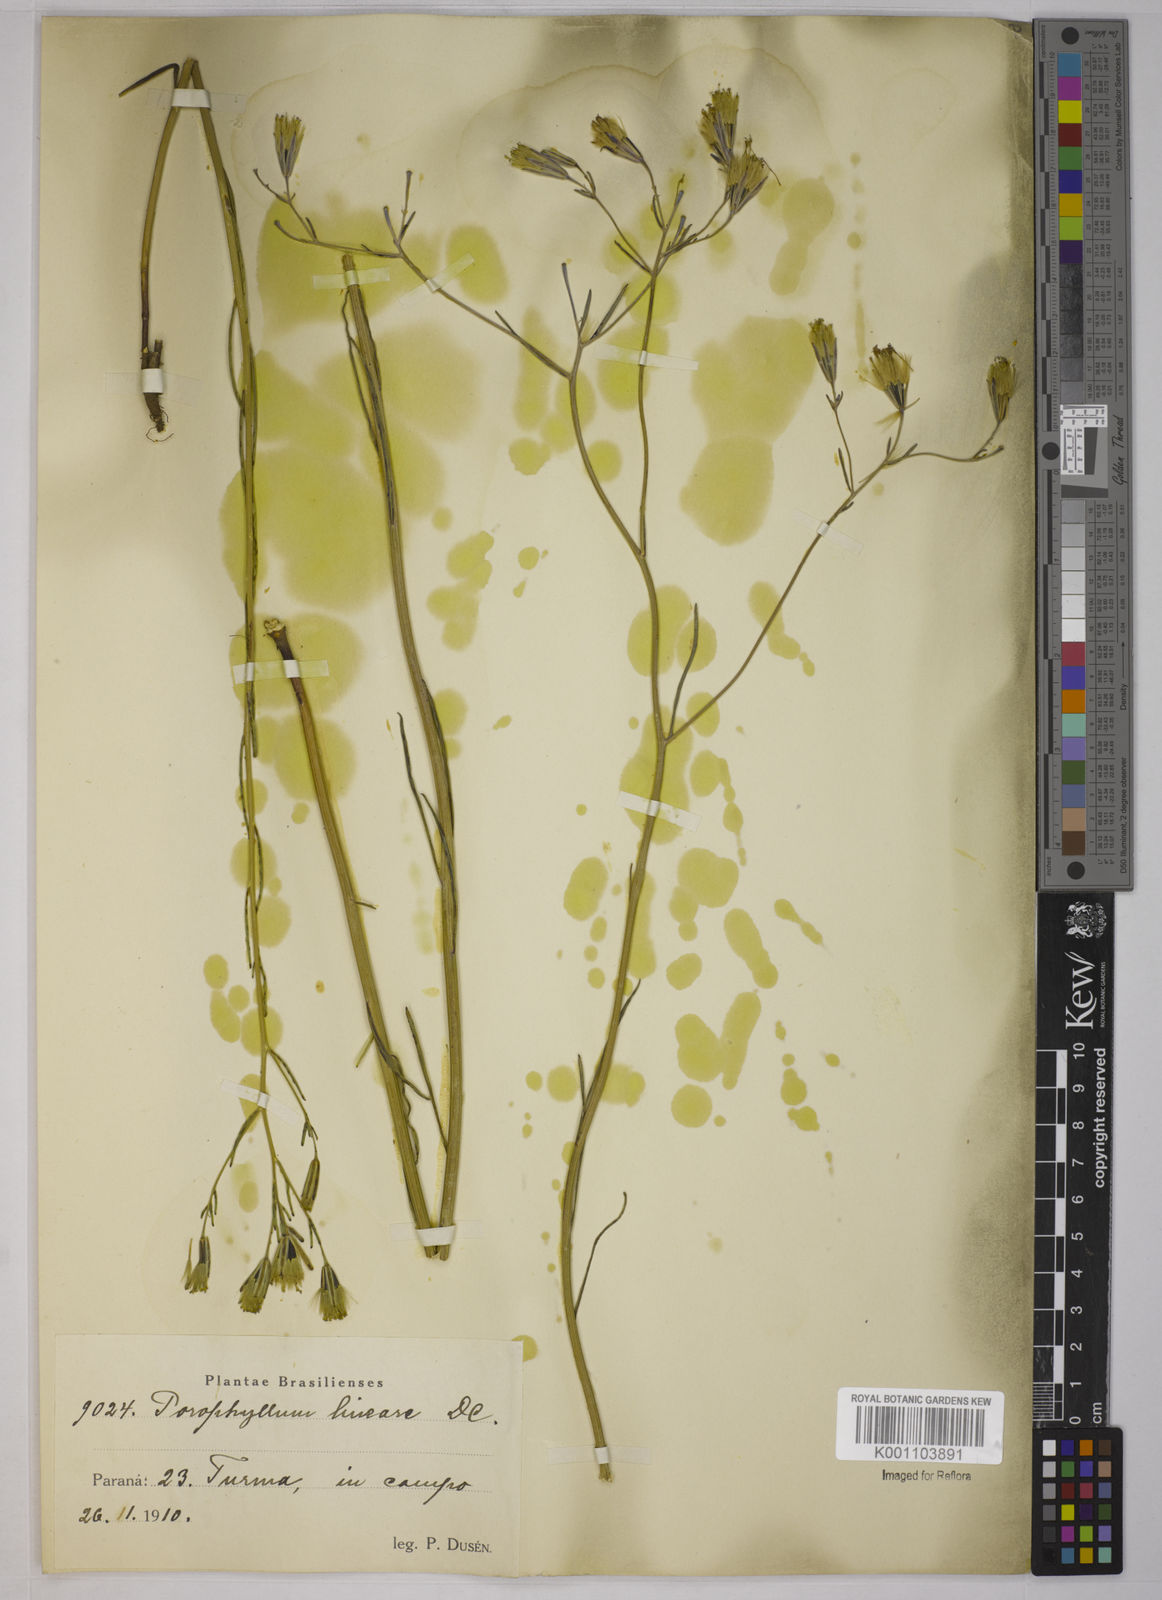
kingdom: Plantae
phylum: Tracheophyta
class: Magnoliopsida
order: Asterales
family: Asteraceae
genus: Porophyllum
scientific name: Porophyllum obscurum
